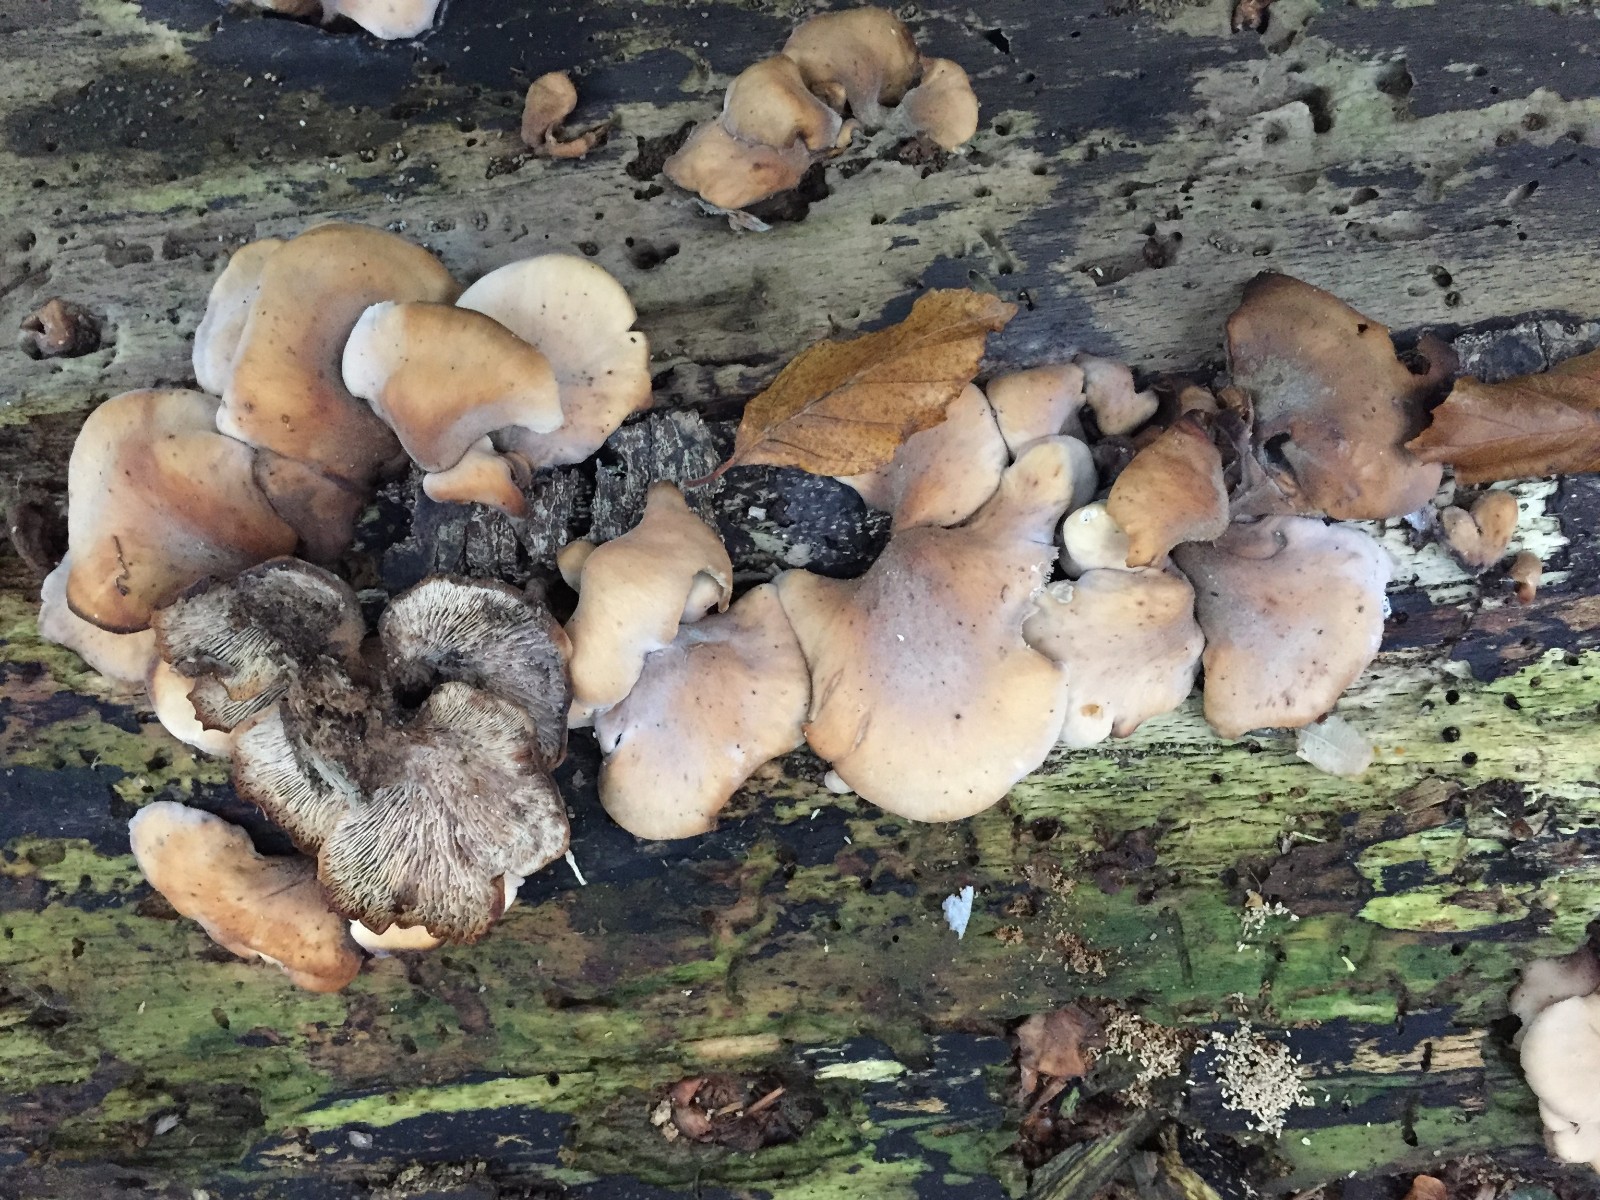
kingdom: Fungi
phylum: Basidiomycota
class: Agaricomycetes
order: Russulales
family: Auriscalpiaceae
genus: Lentinellus
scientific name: Lentinellus ursinus
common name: børstehåret savbladhat
